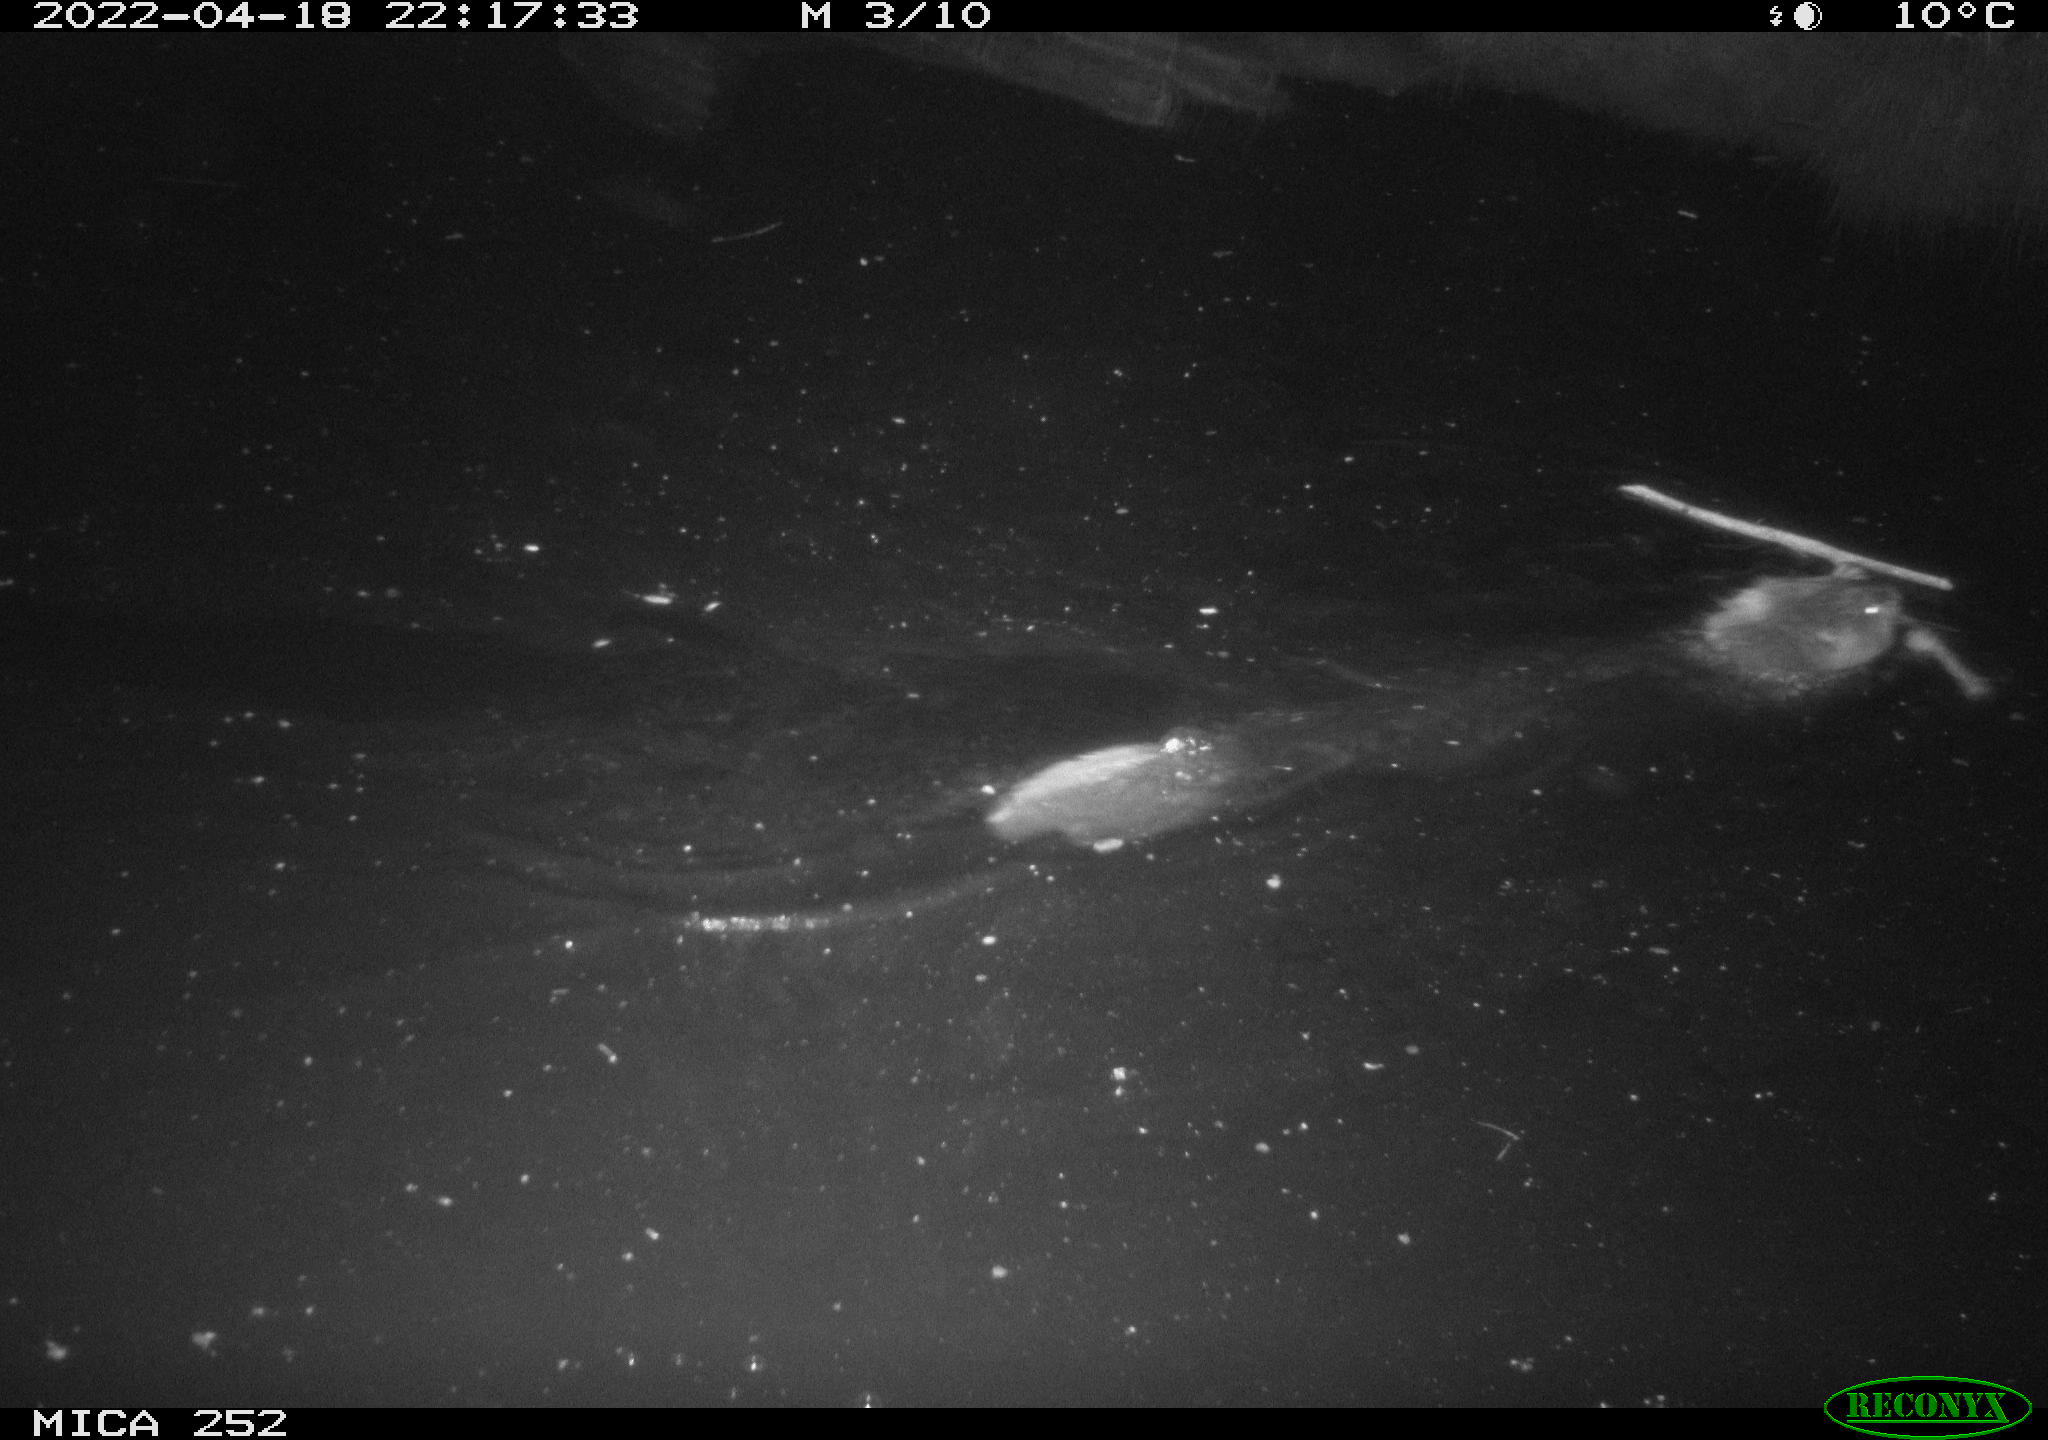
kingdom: Animalia
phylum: Chordata
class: Mammalia
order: Rodentia
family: Castoridae
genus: Castor
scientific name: Castor fiber
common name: Eurasian beaver
